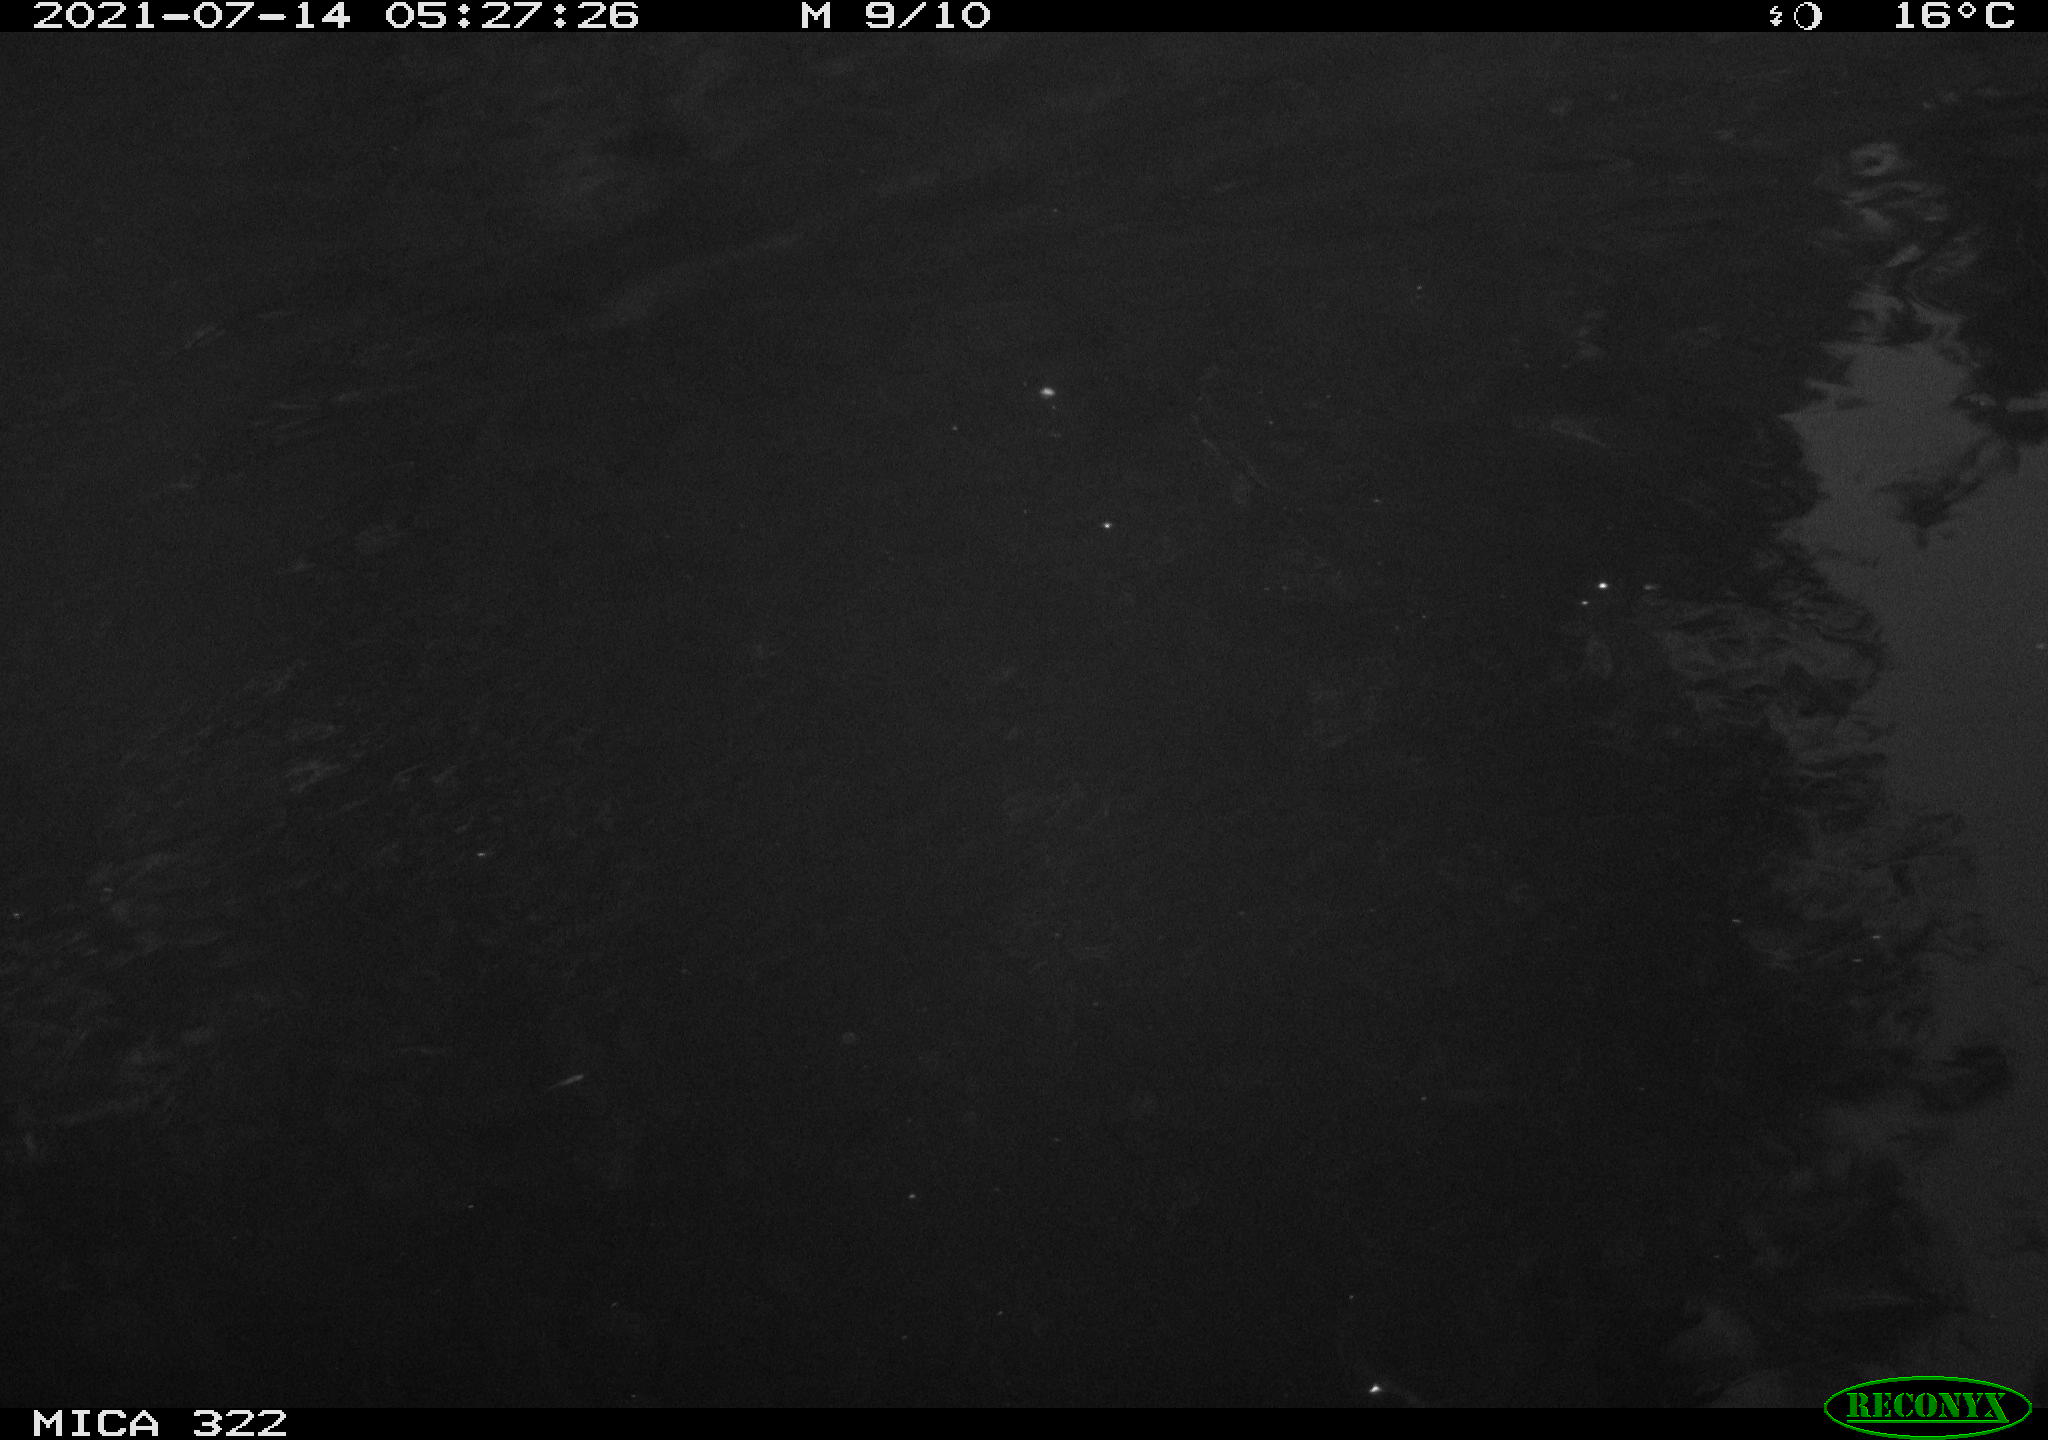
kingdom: Animalia
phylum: Chordata
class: Aves
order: Anseriformes
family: Anatidae
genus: Anas
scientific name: Anas platyrhynchos
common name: Mallard
